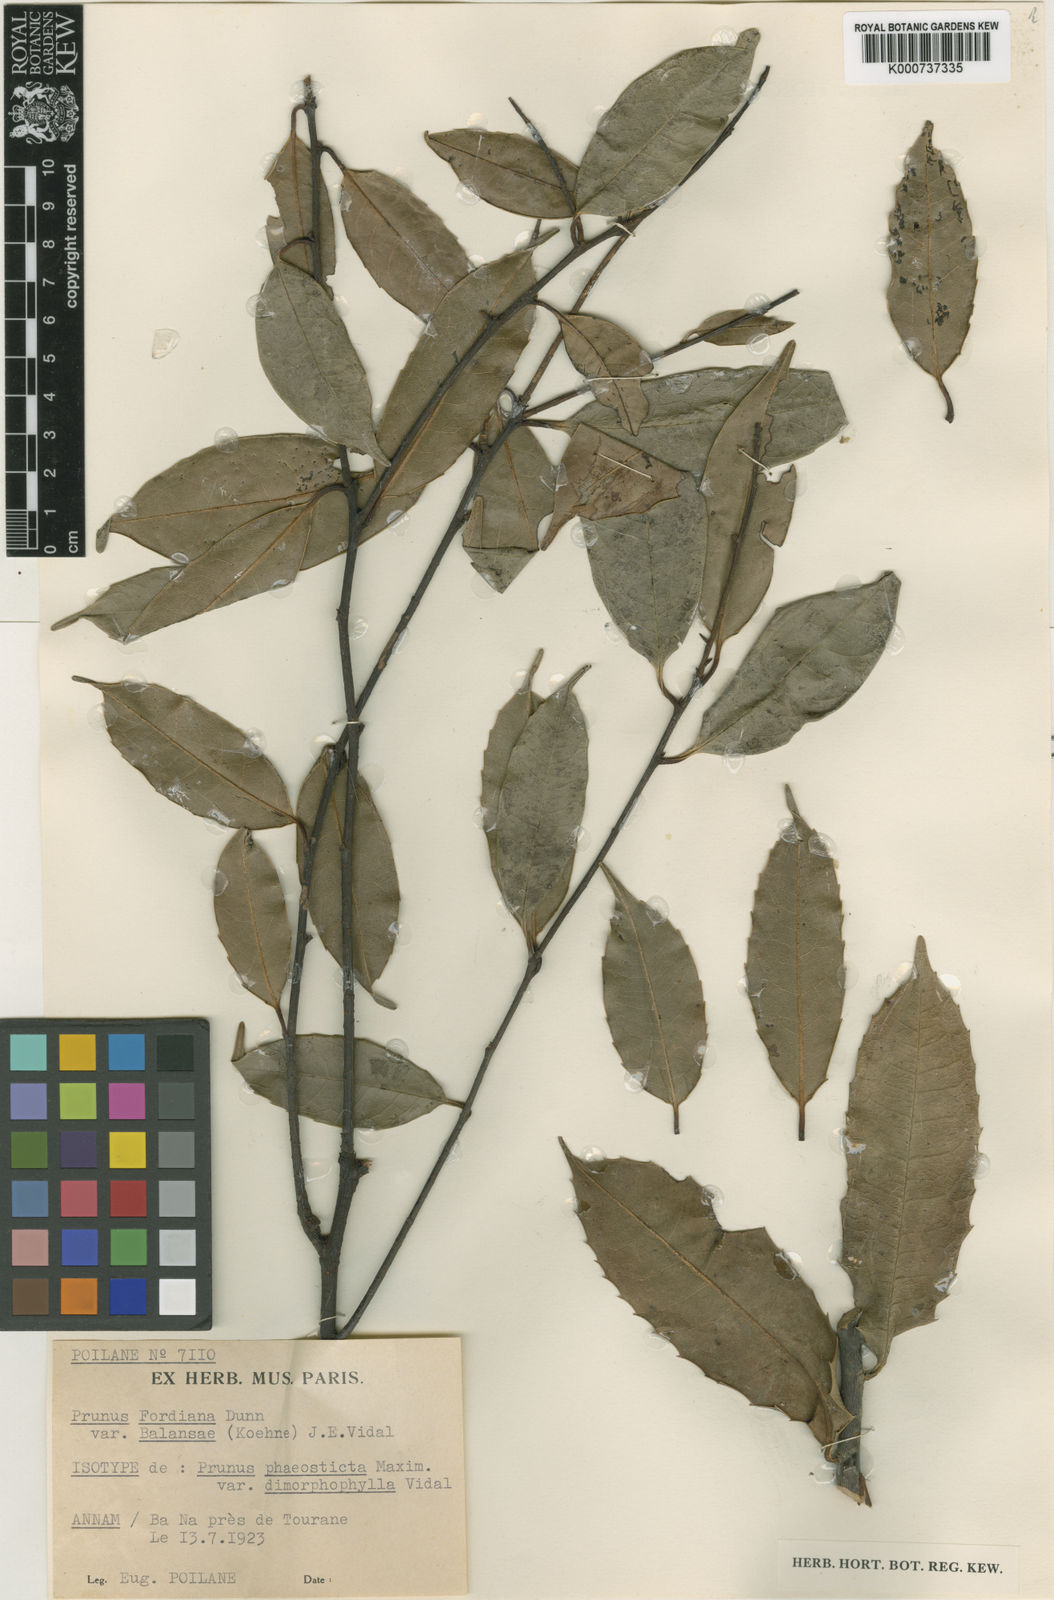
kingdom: Plantae
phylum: Tracheophyta
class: Magnoliopsida
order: Rosales
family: Rosaceae
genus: Prunus
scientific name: Prunus fordiana
